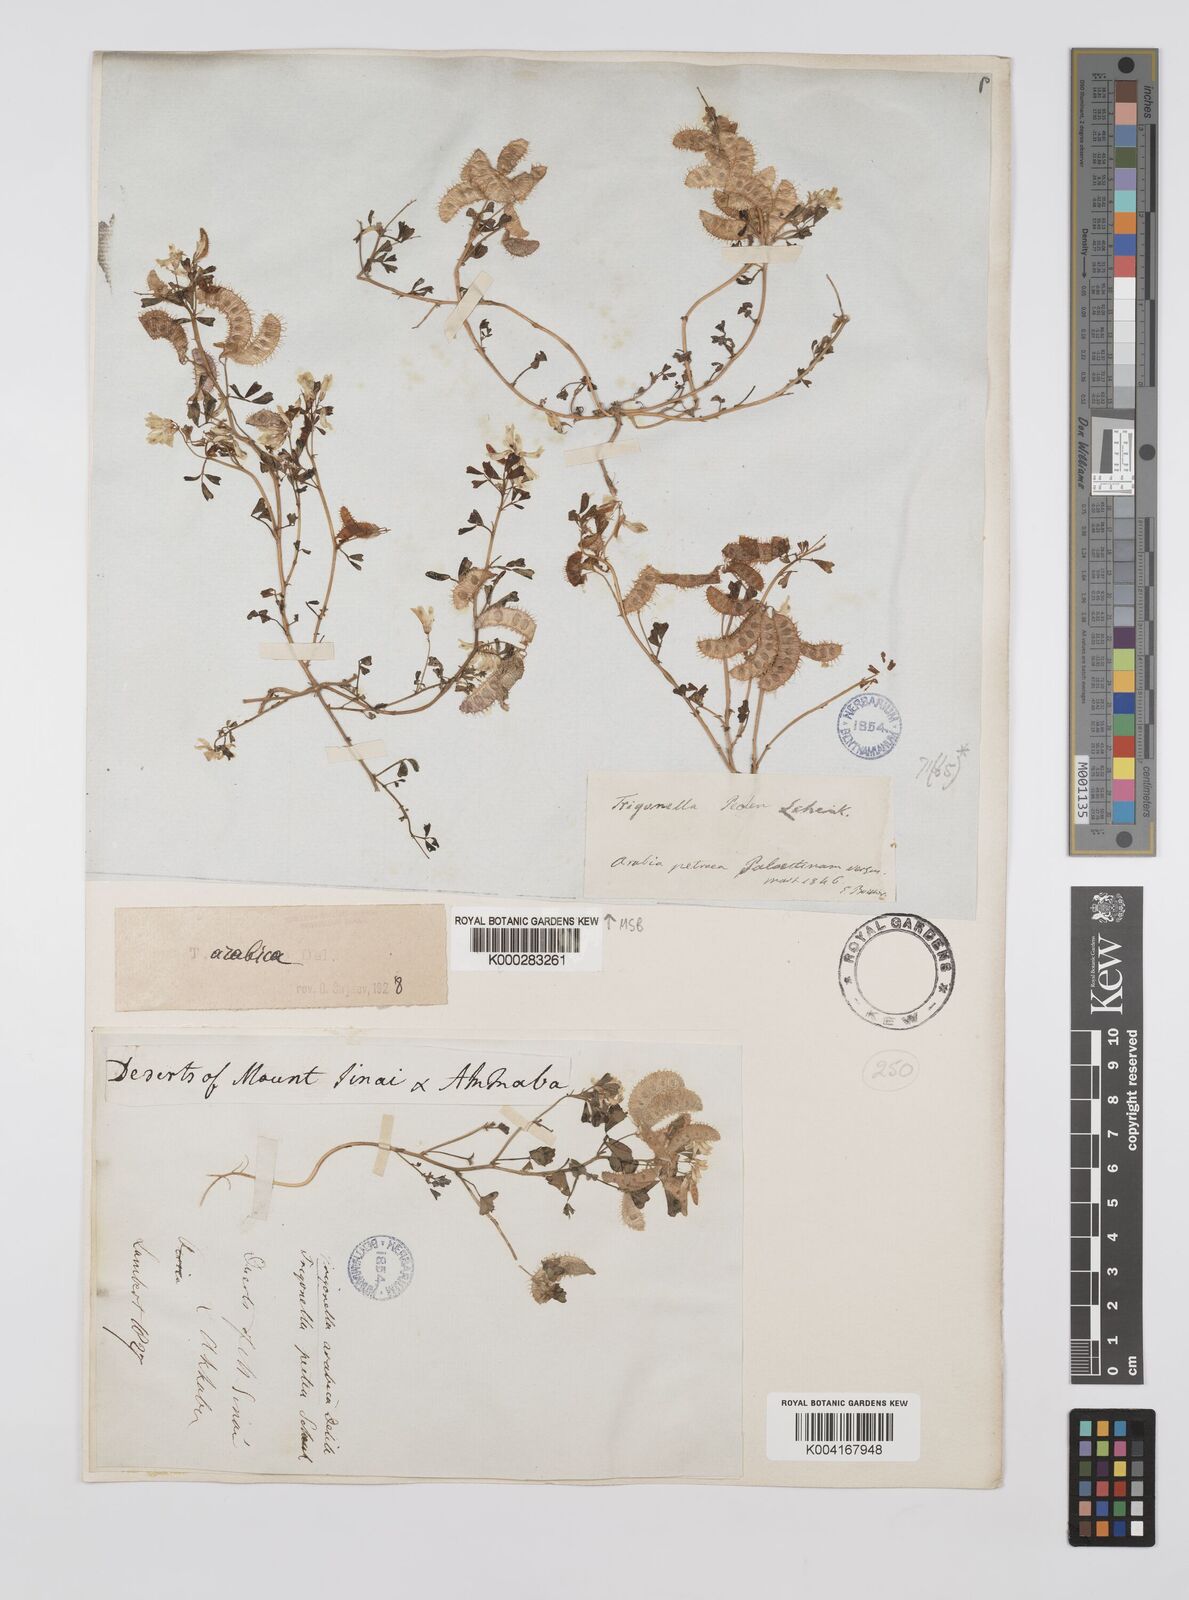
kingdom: Plantae
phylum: Tracheophyta
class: Magnoliopsida
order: Fabales
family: Fabaceae
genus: Trigonella
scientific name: Trigonella arabica
